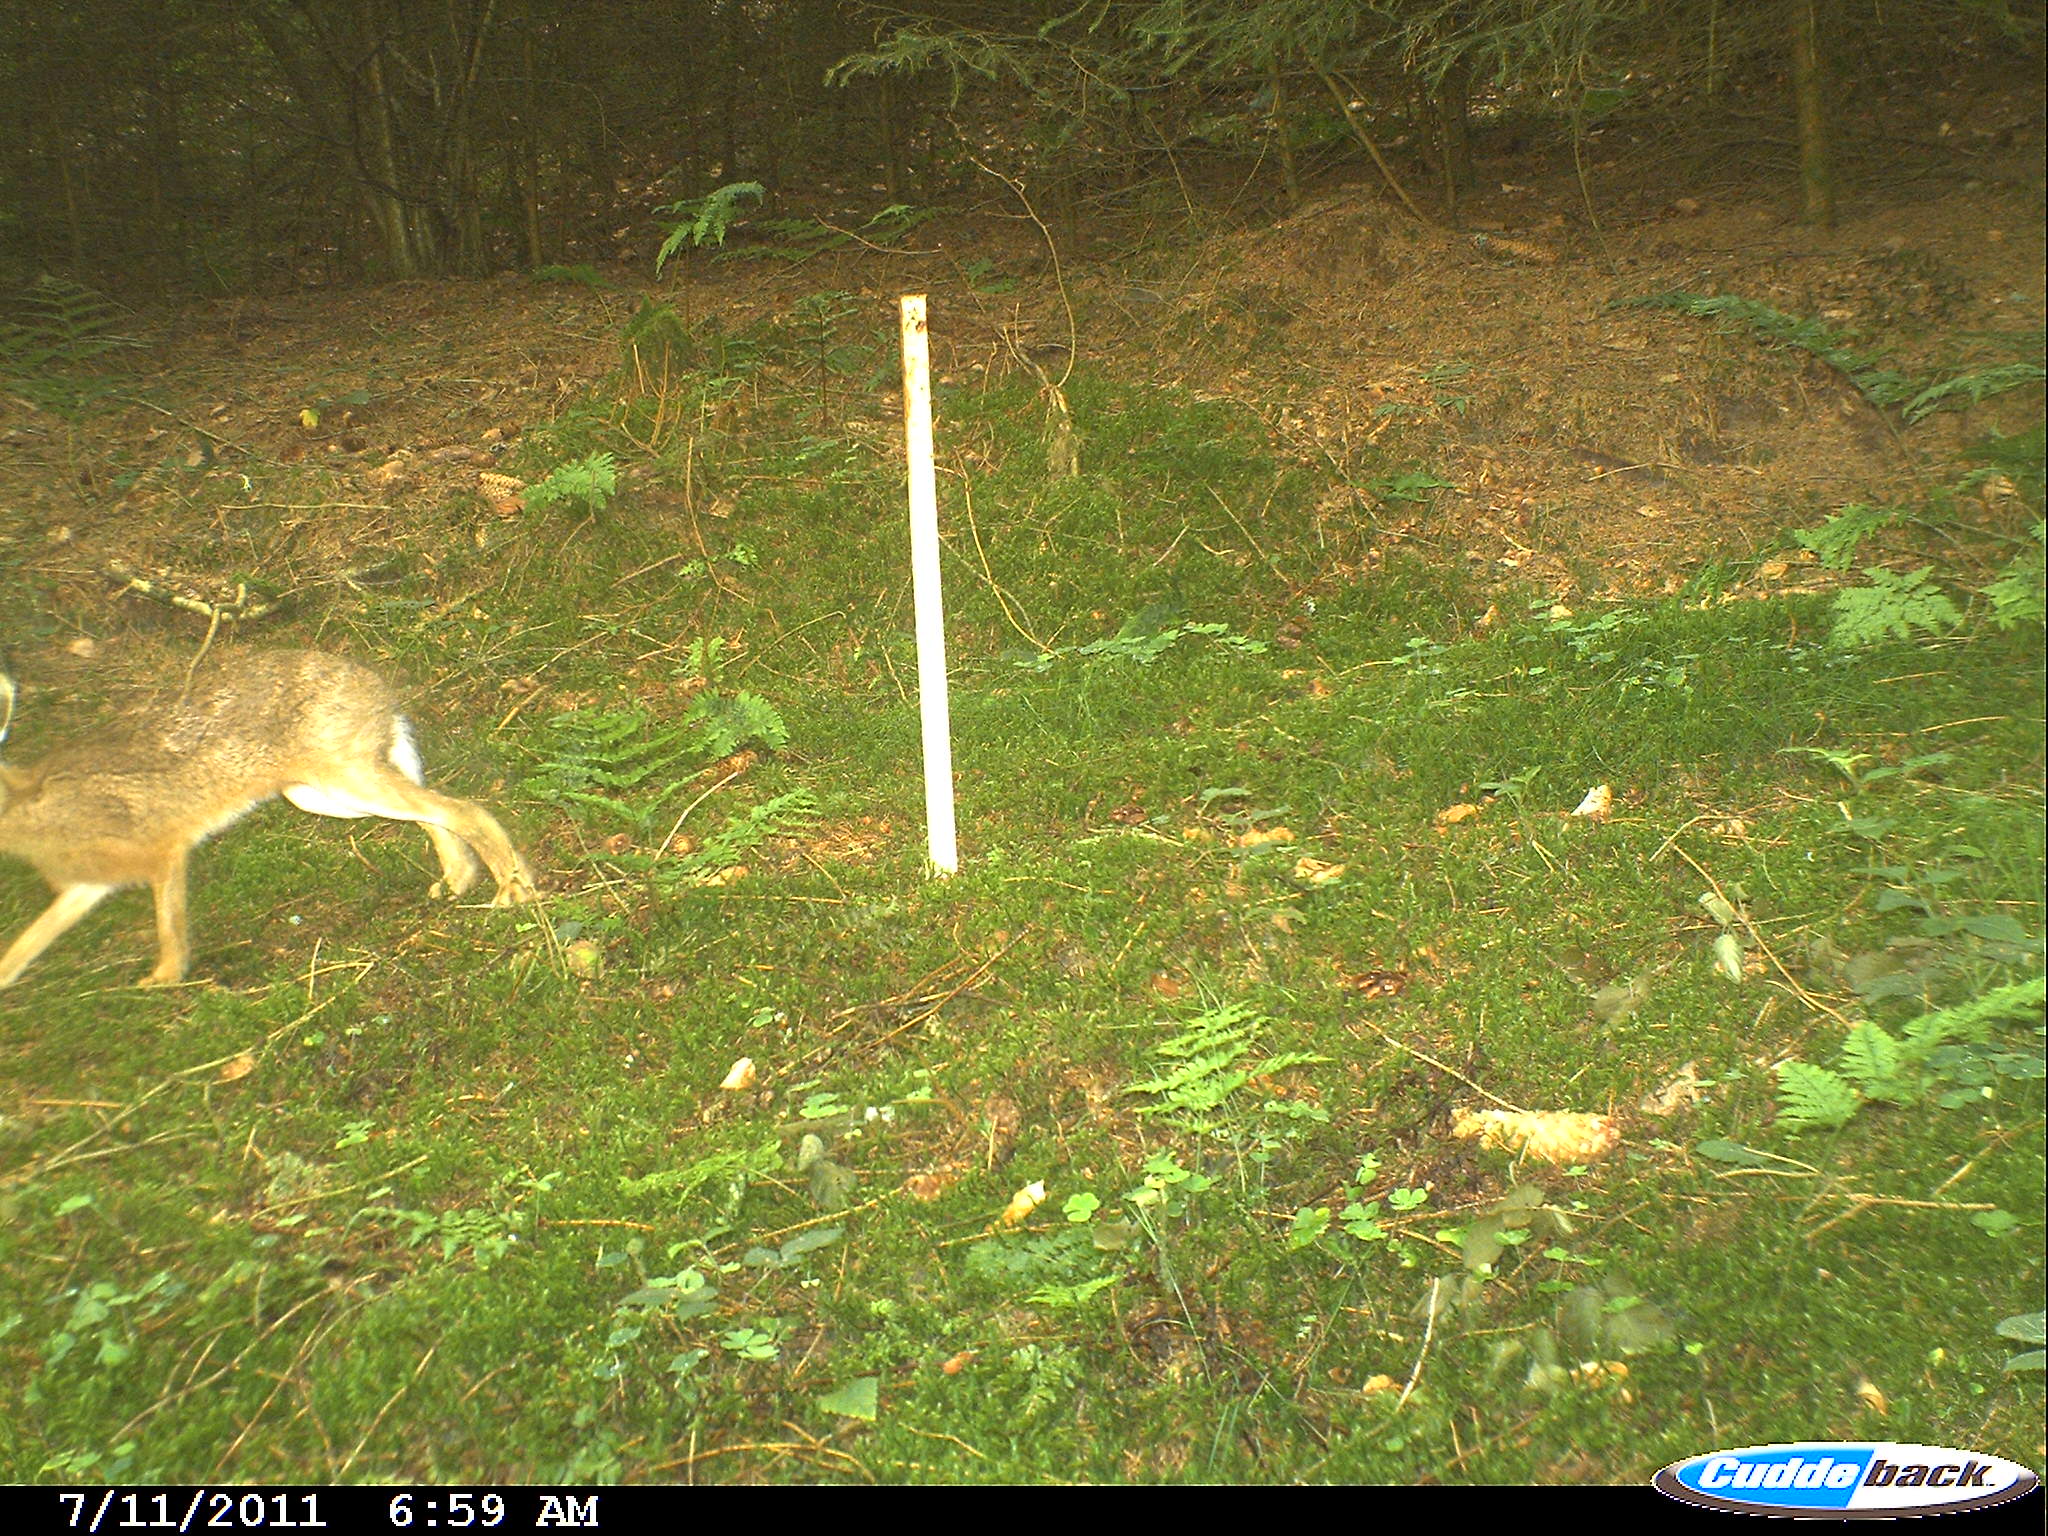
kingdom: Animalia
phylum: Chordata
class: Mammalia
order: Lagomorpha
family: Leporidae
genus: Lepus
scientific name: Lepus europaeus
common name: European hare
